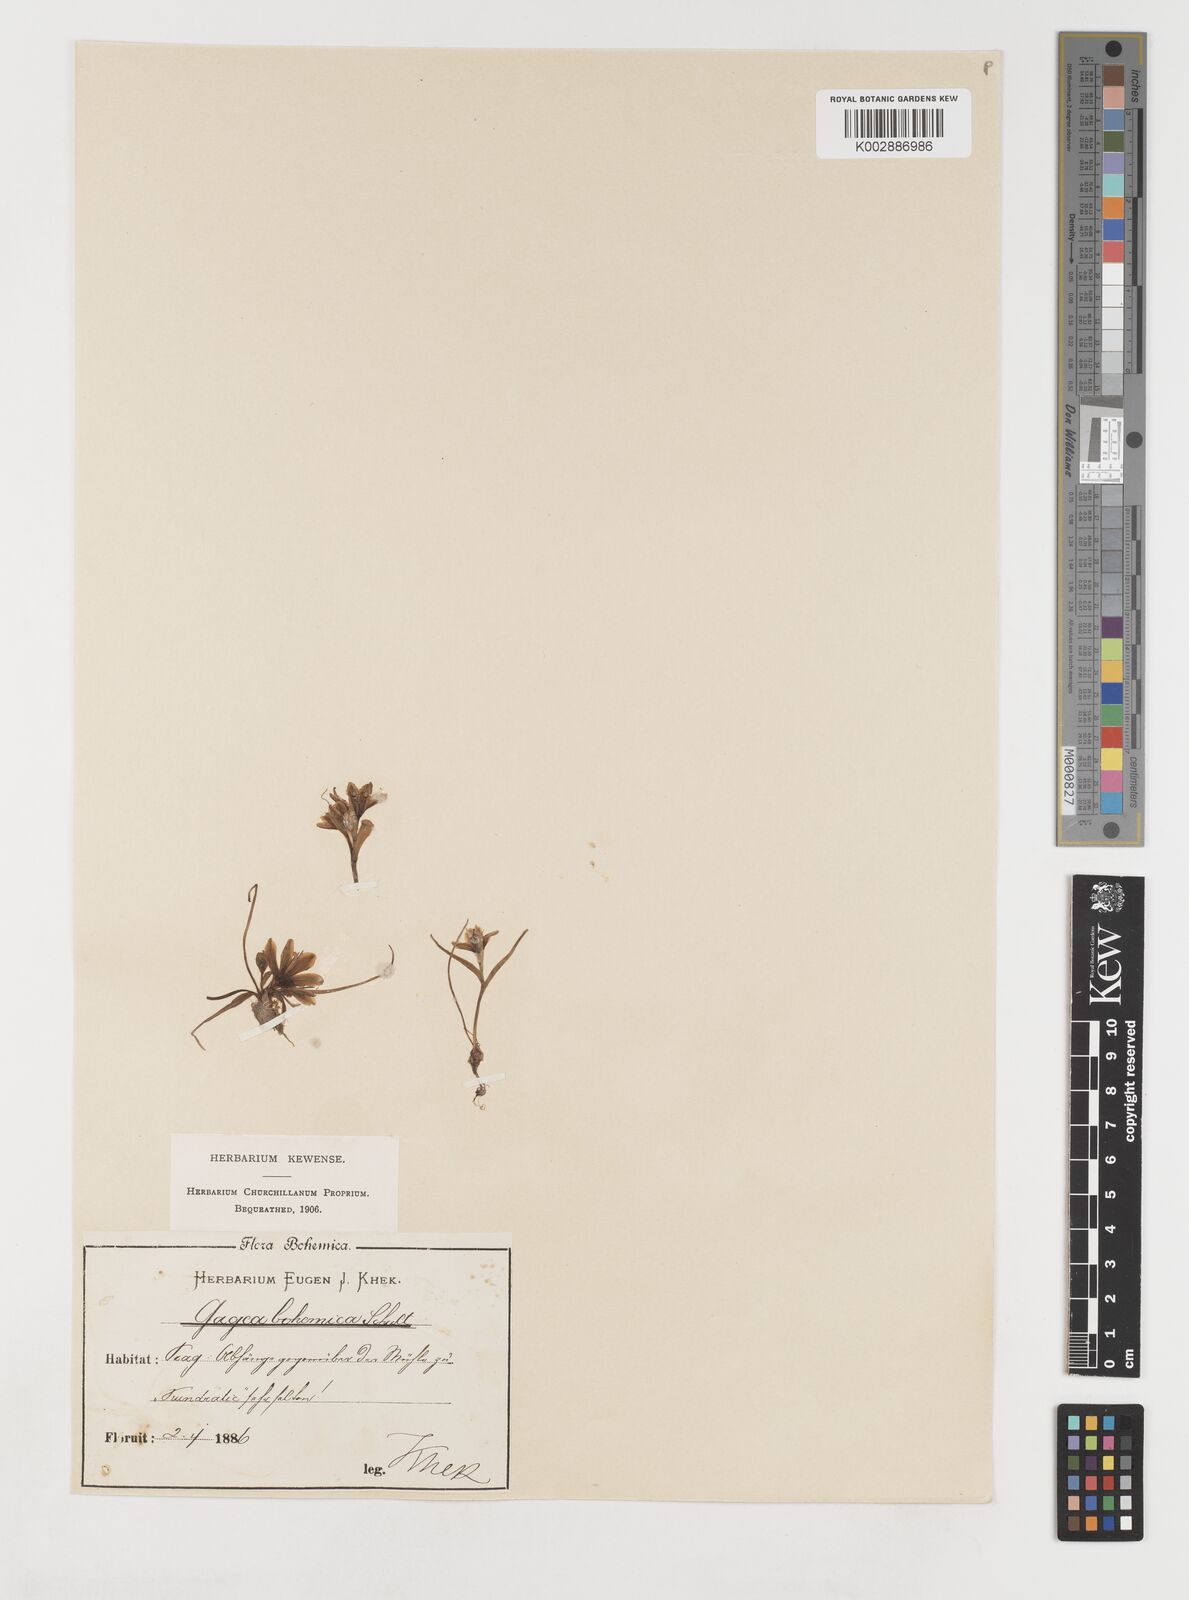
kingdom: Plantae
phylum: Tracheophyta
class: Liliopsida
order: Liliales
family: Liliaceae
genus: Gagea
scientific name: Gagea bohemica
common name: Early star-of-bethlehem
